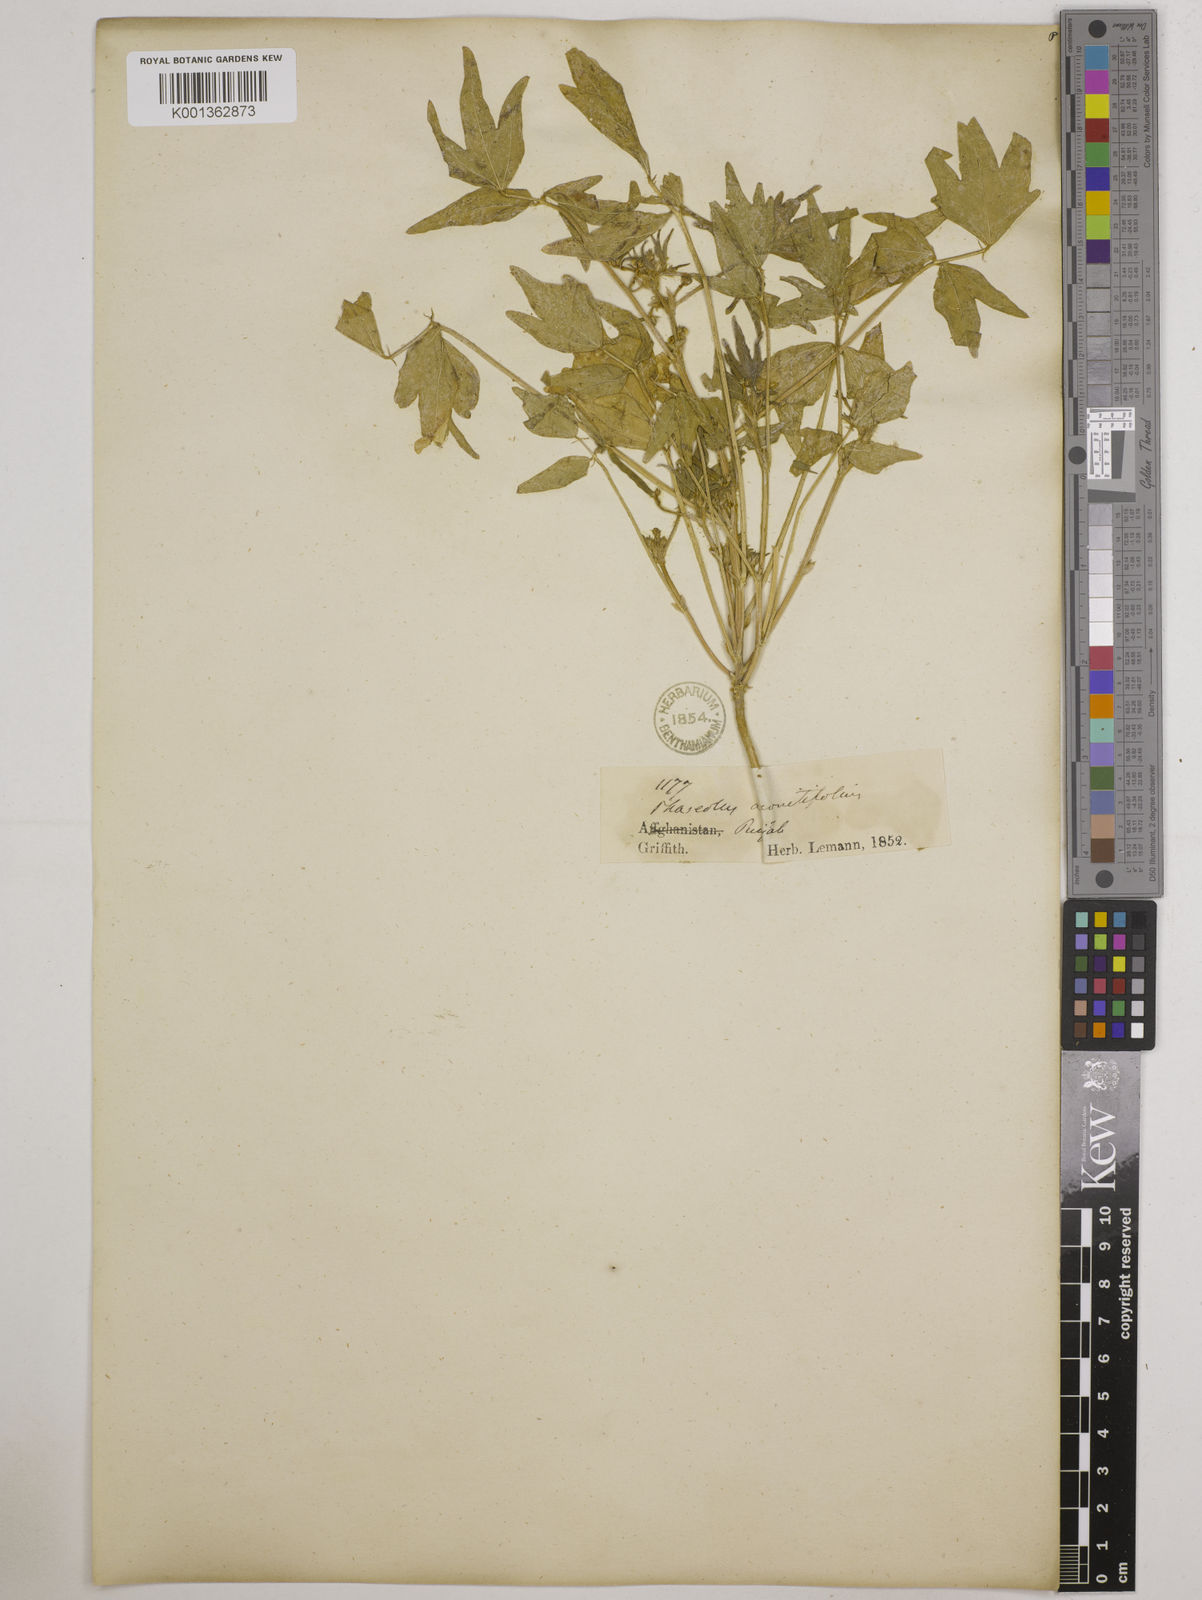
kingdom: Plantae
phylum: Tracheophyta
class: Magnoliopsida
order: Fabales
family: Fabaceae
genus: Vigna
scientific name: Vigna aconitifolia
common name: Dew bean
